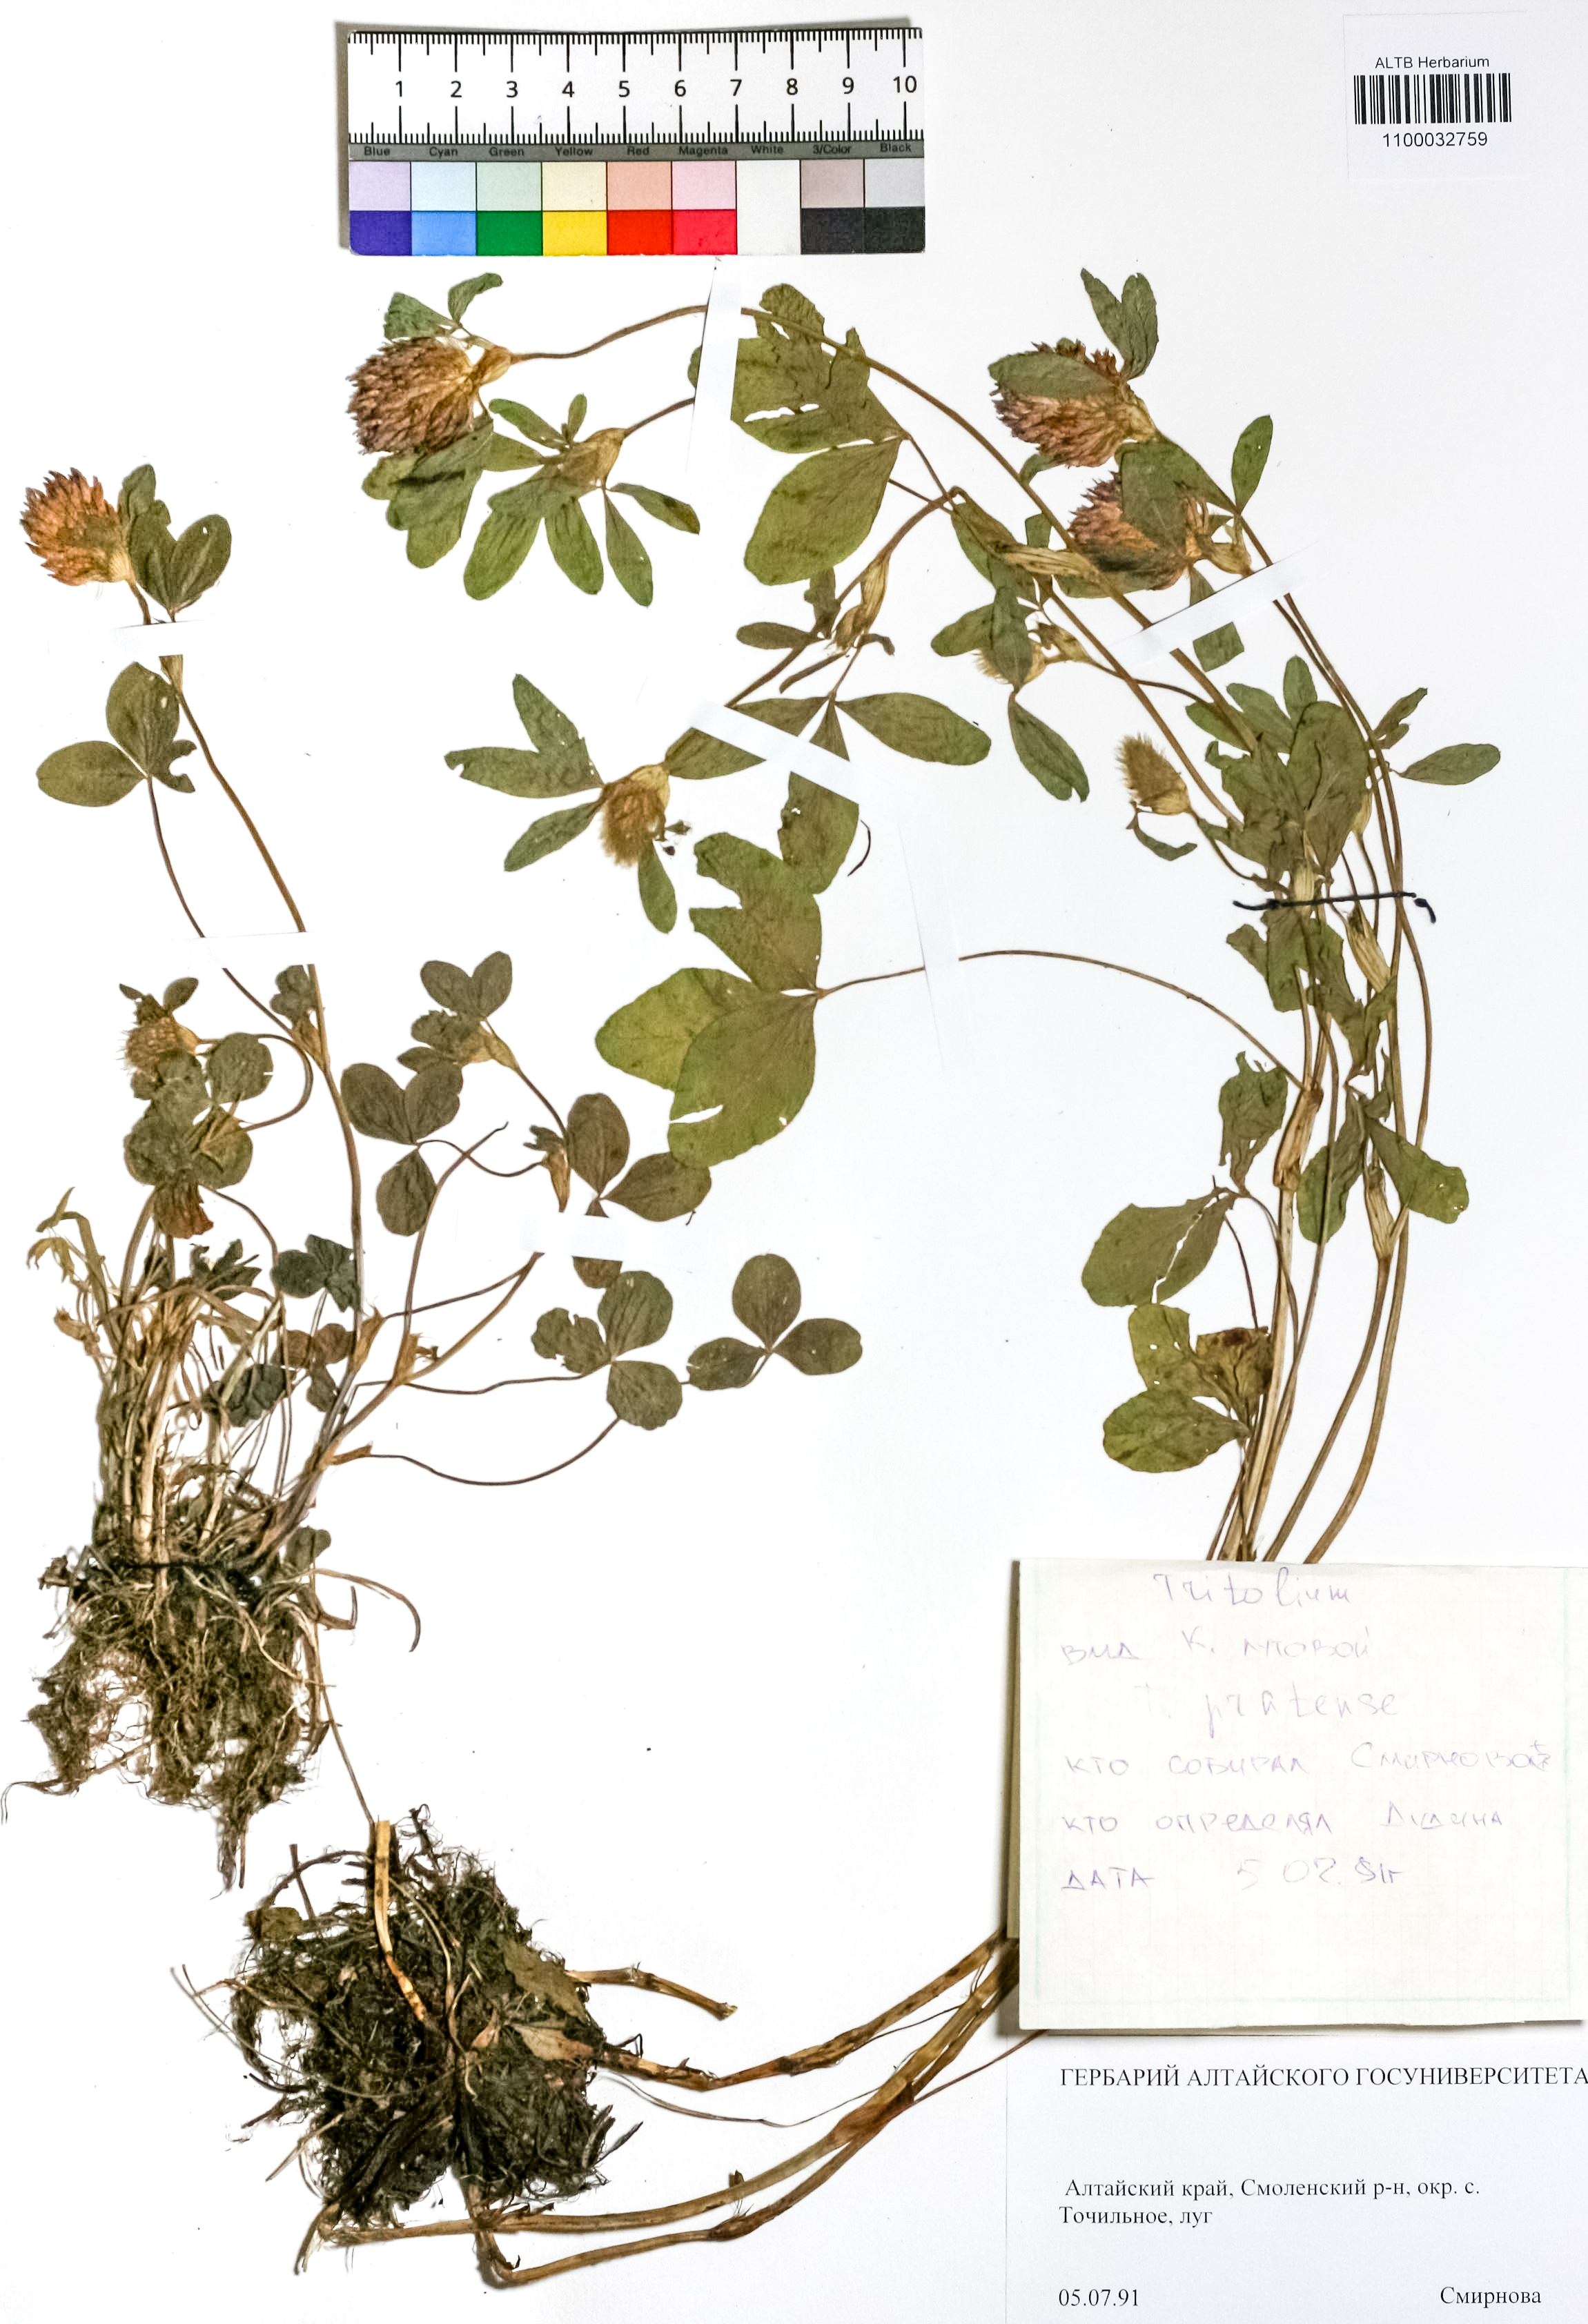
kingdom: Plantae
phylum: Tracheophyta
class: Magnoliopsida
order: Fabales
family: Fabaceae
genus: Trifolium
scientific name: Trifolium pratense
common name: Red clover
